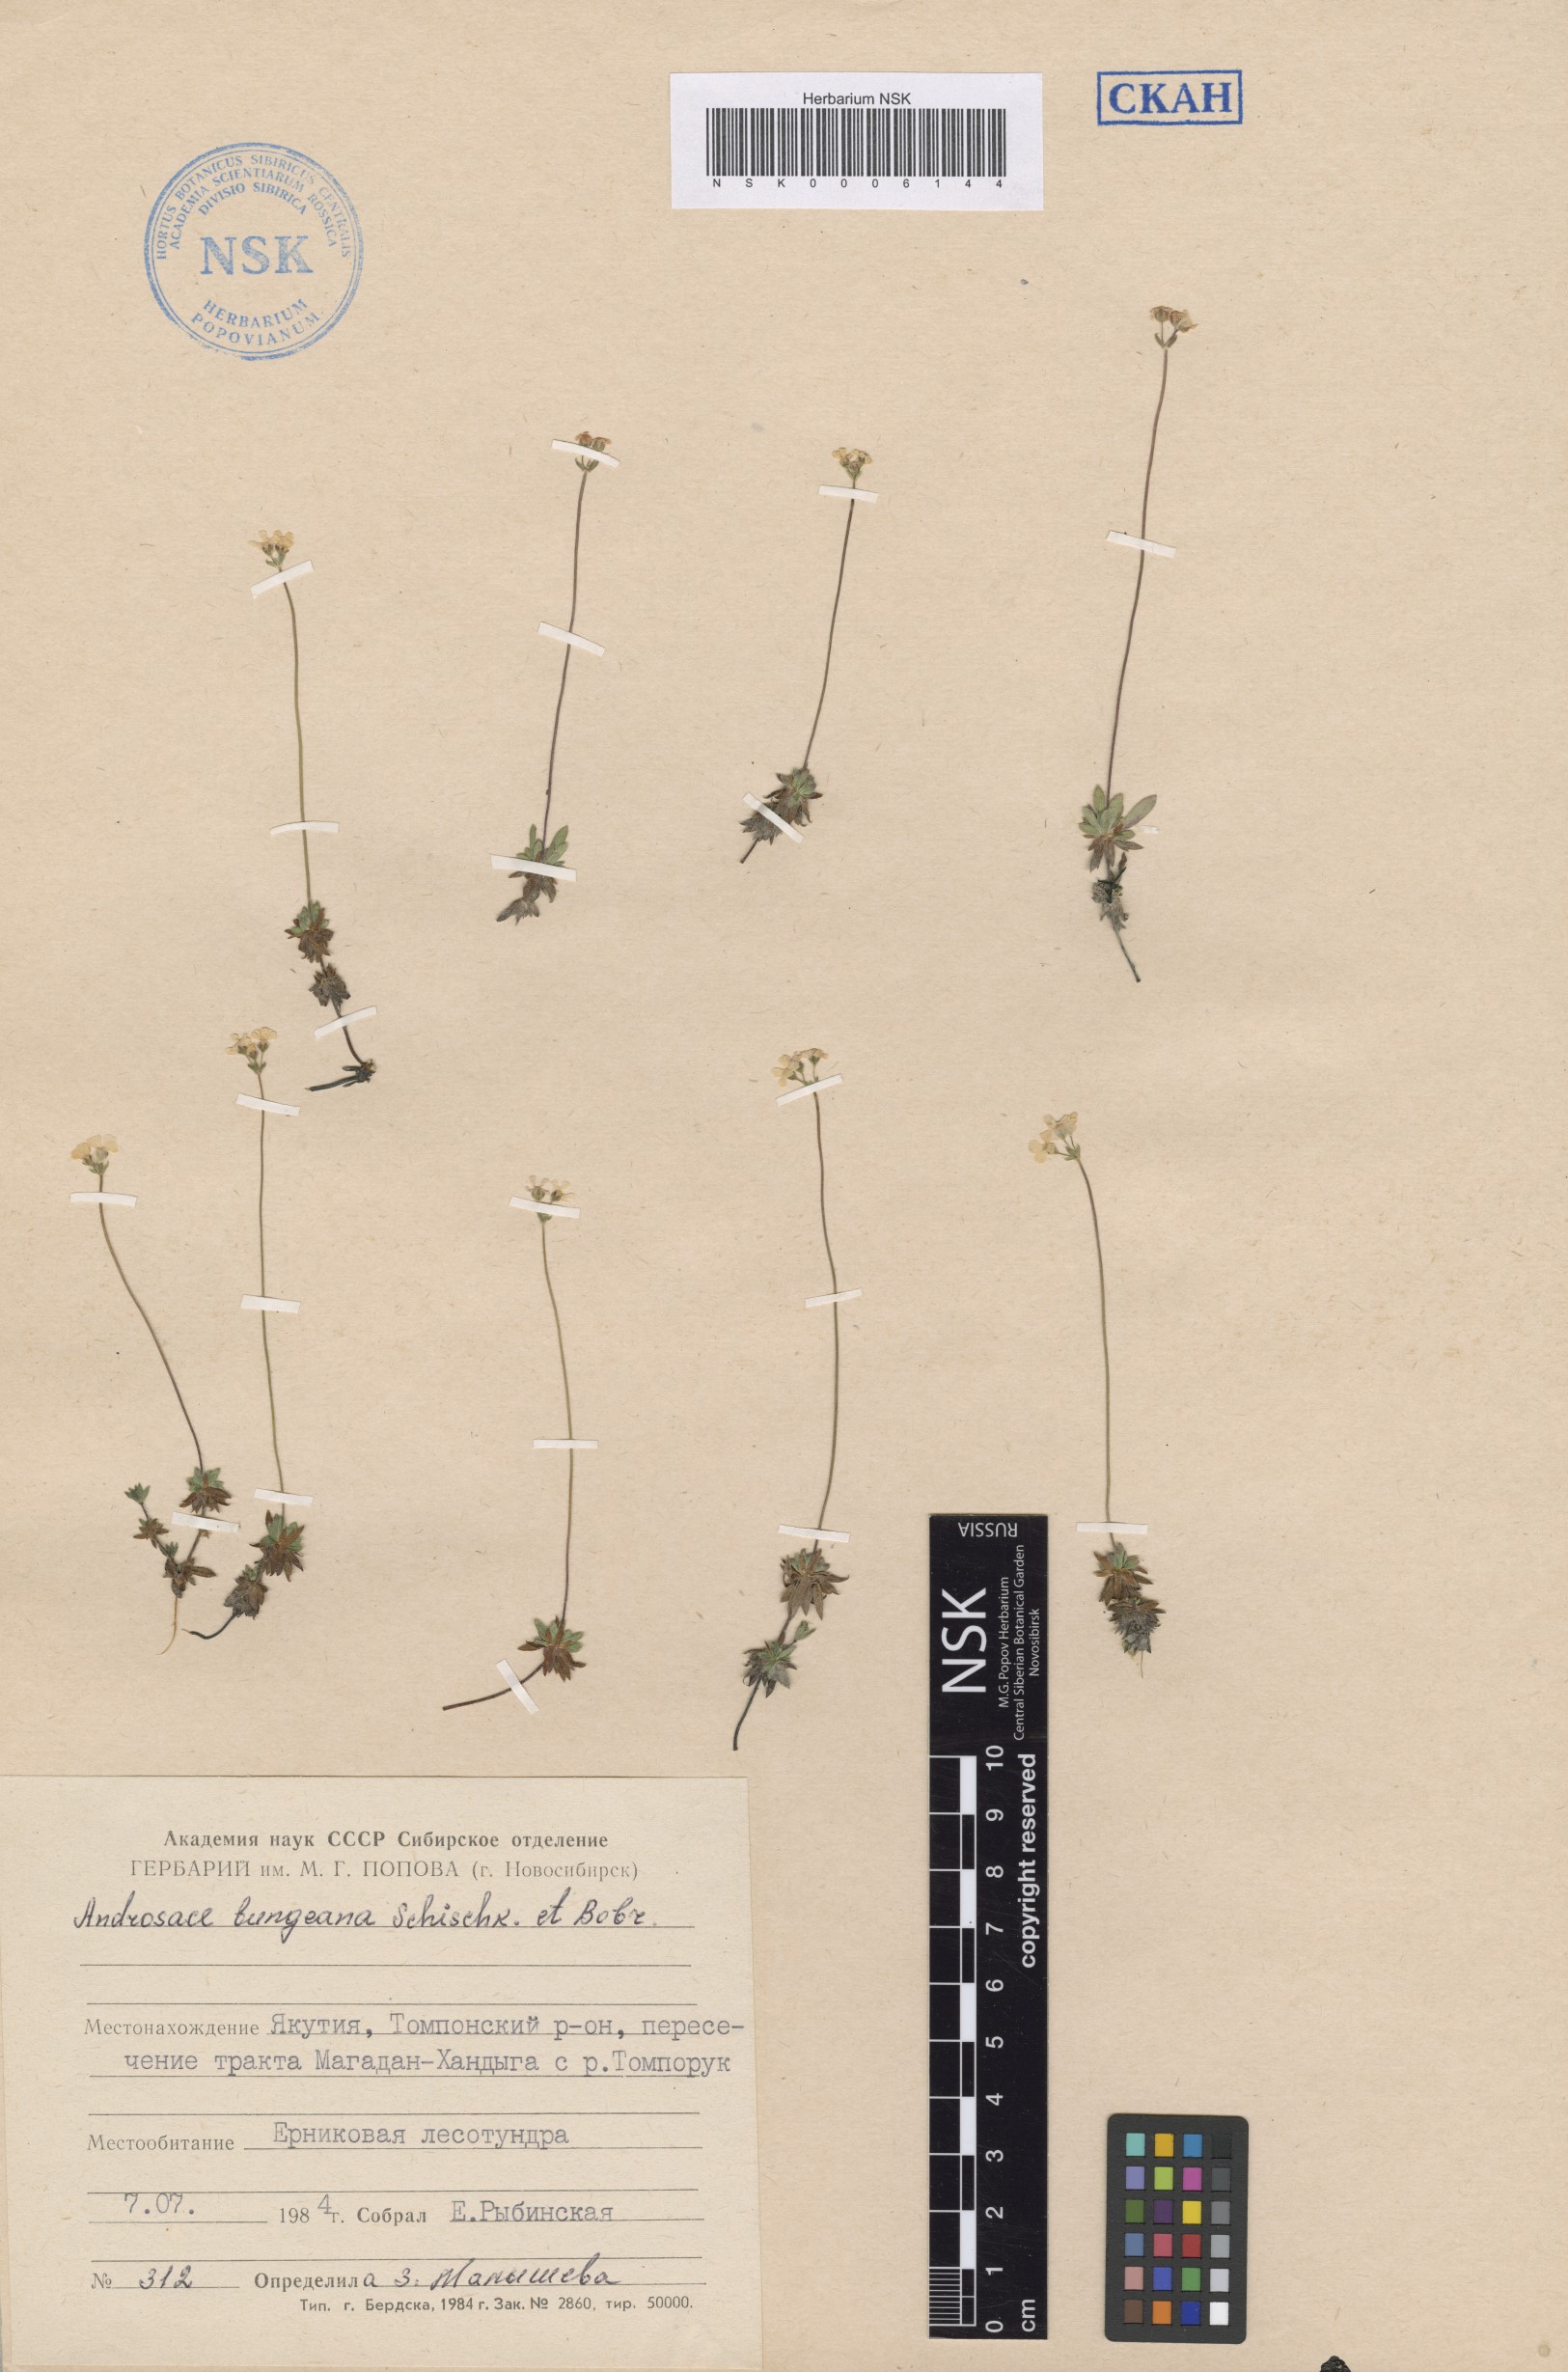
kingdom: Plantae
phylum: Tracheophyta
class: Magnoliopsida
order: Ericales
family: Primulaceae
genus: Androsace
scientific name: Androsace bungeana
